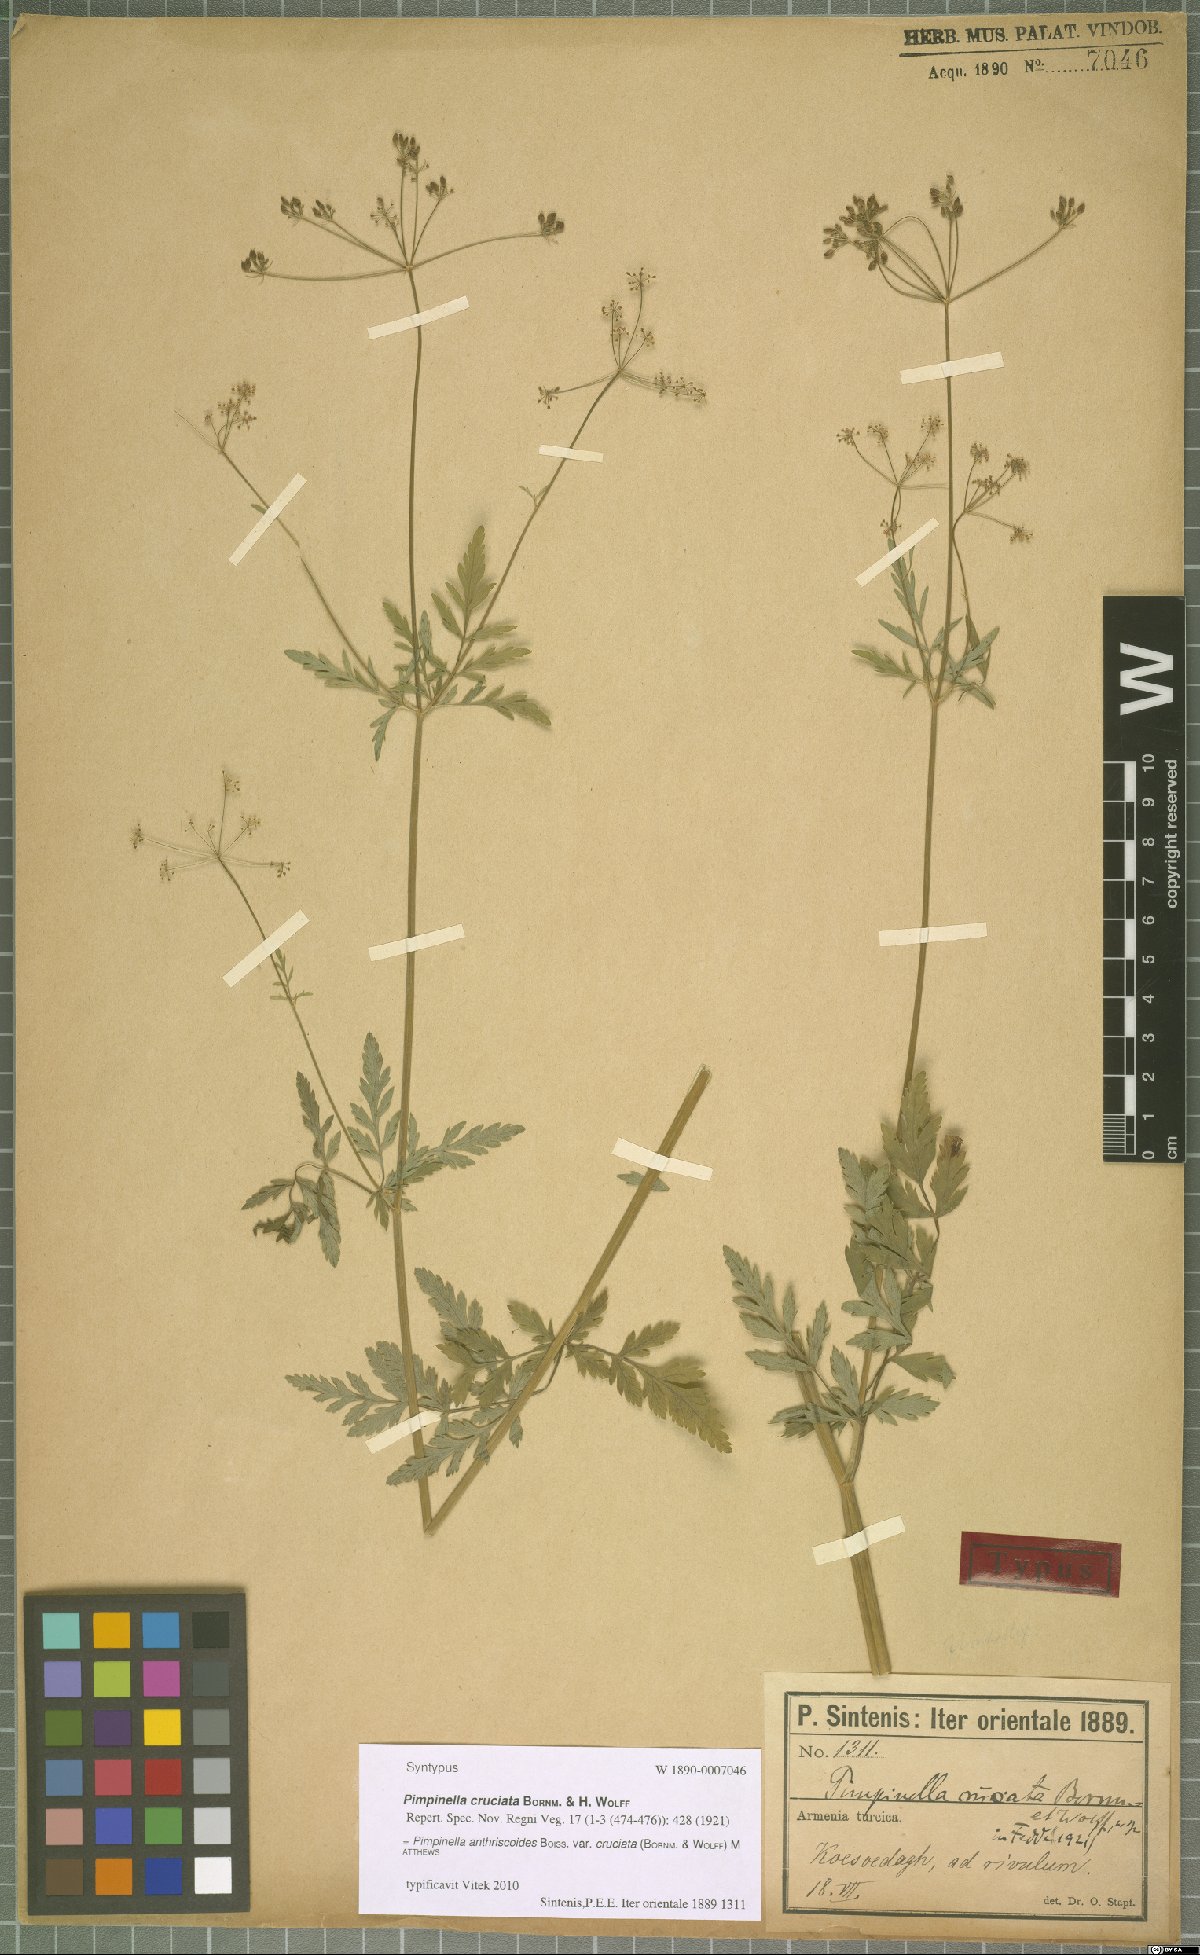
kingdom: Plantae
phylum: Tracheophyta
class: Magnoliopsida
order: Apiales
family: Apiaceae
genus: Tamamschjanella
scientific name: Tamamschjanella cruciata
